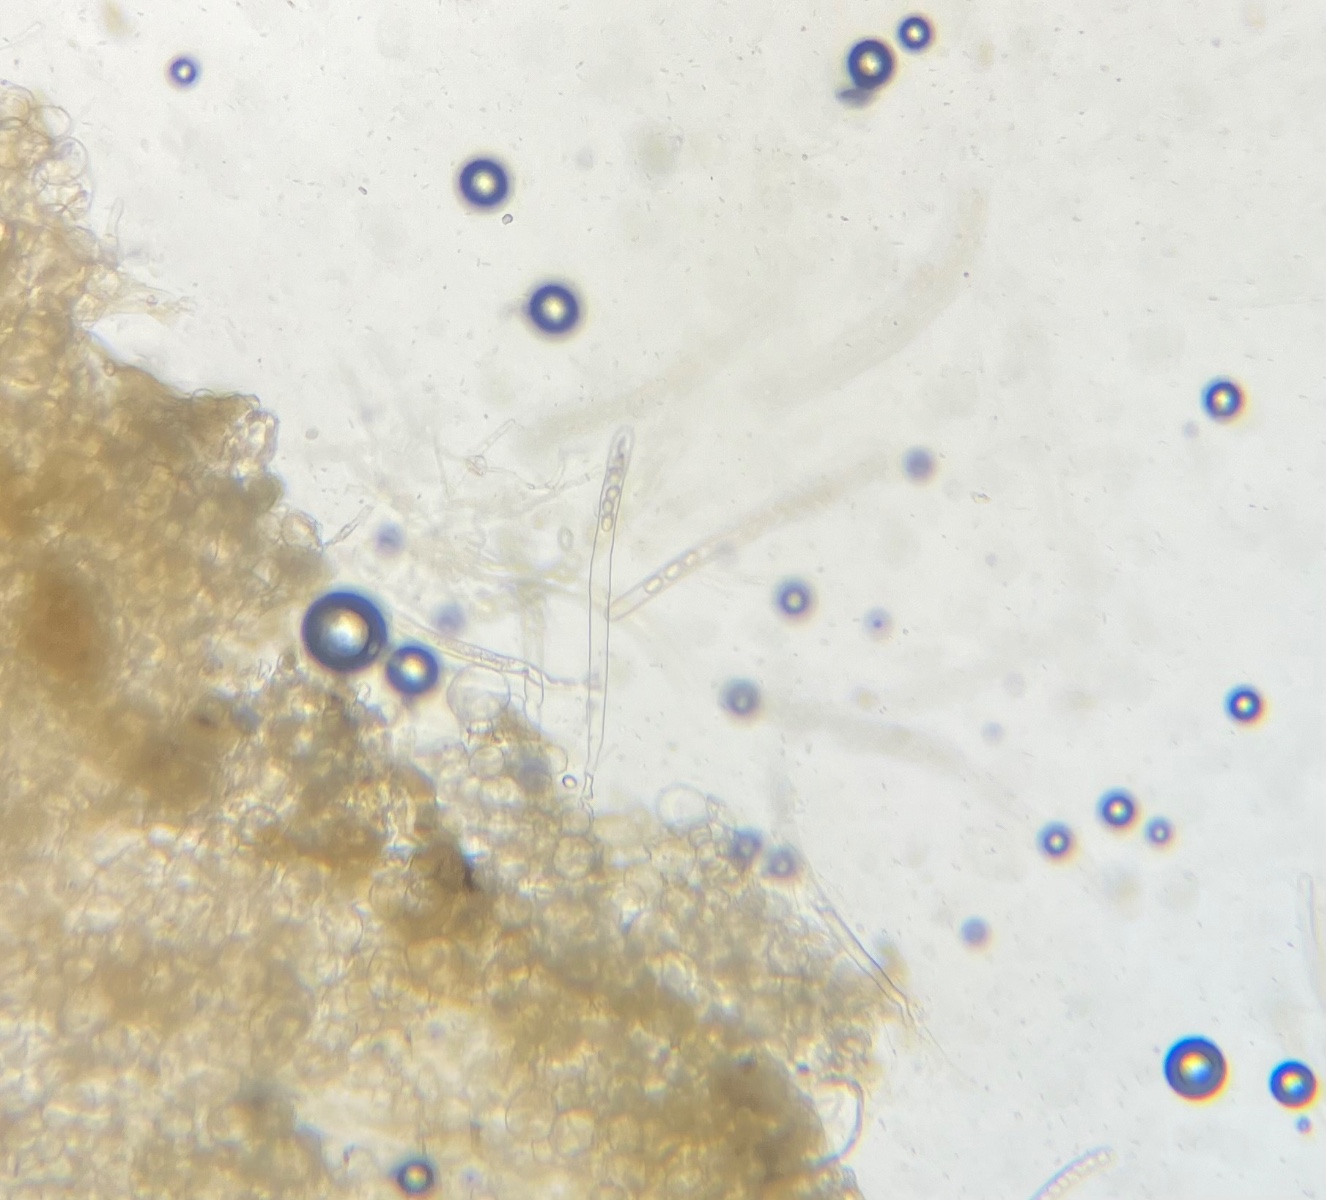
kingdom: Fungi
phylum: Ascomycota
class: Pezizomycetes
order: Pezizales
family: Pezizaceae
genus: Peziza
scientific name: Peziza
